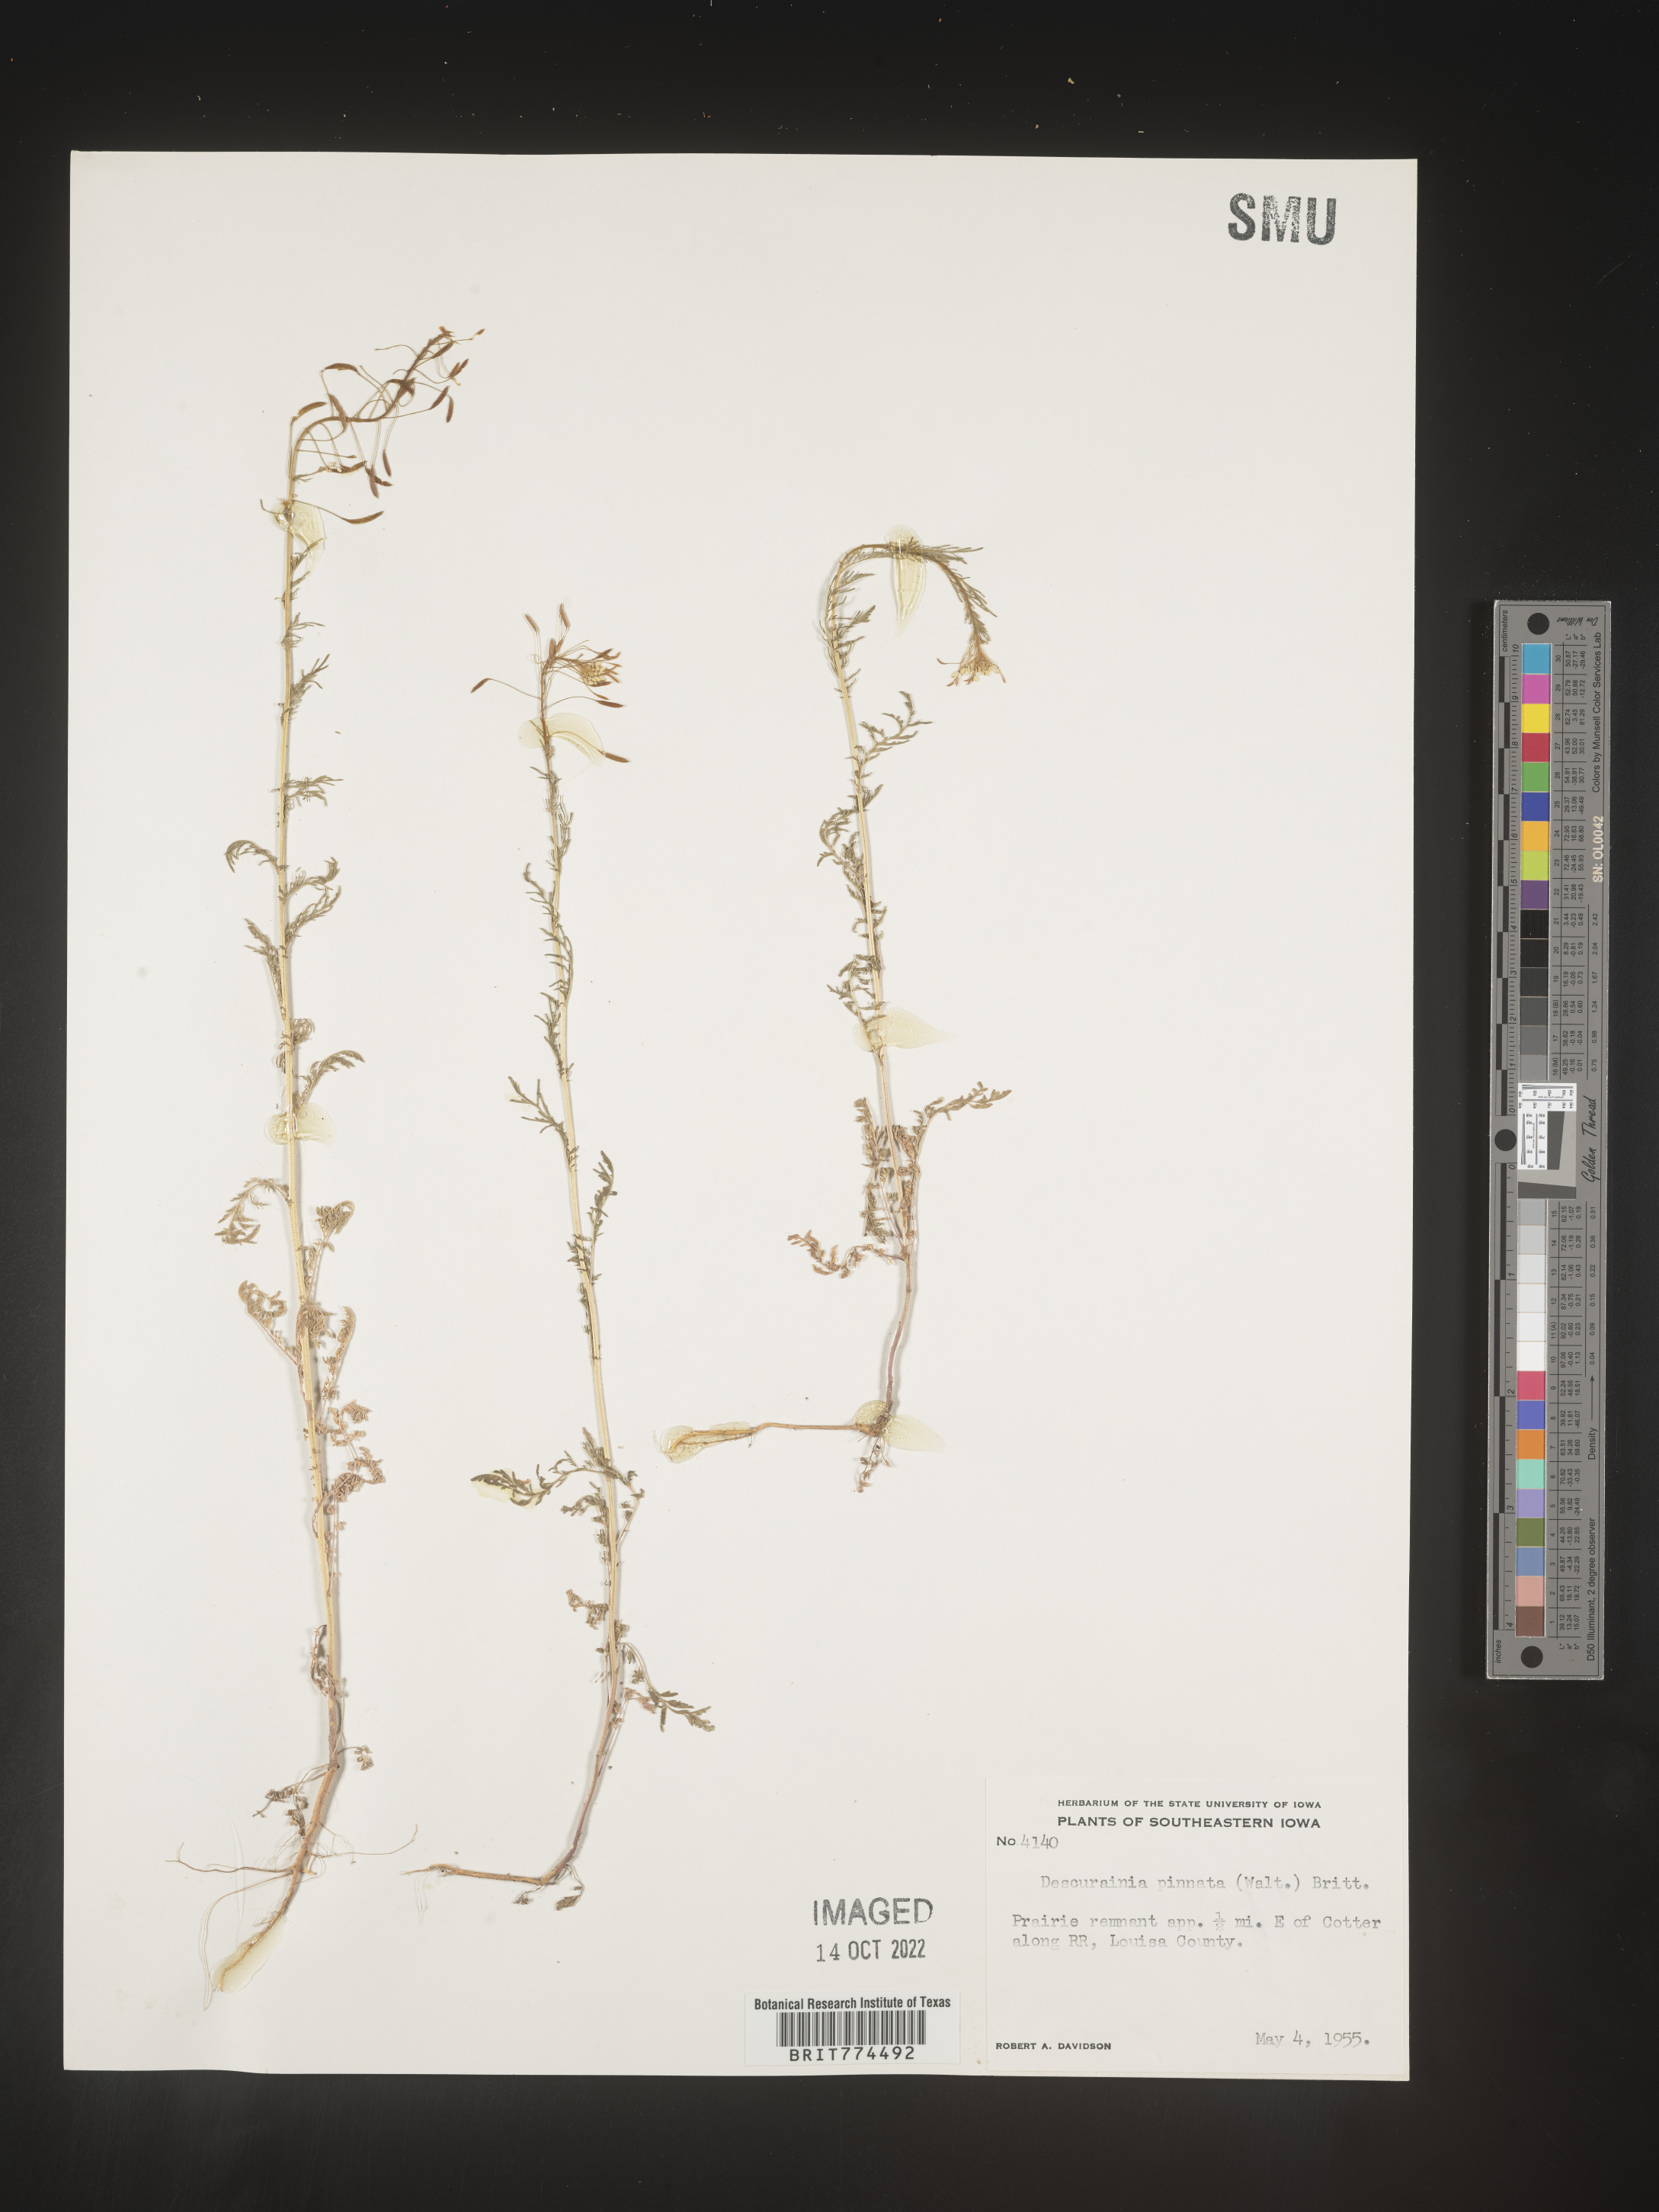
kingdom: Plantae
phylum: Tracheophyta
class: Magnoliopsida
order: Brassicales
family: Brassicaceae
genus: Descurainia
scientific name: Descurainia pinnata
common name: Western tansy mustard
